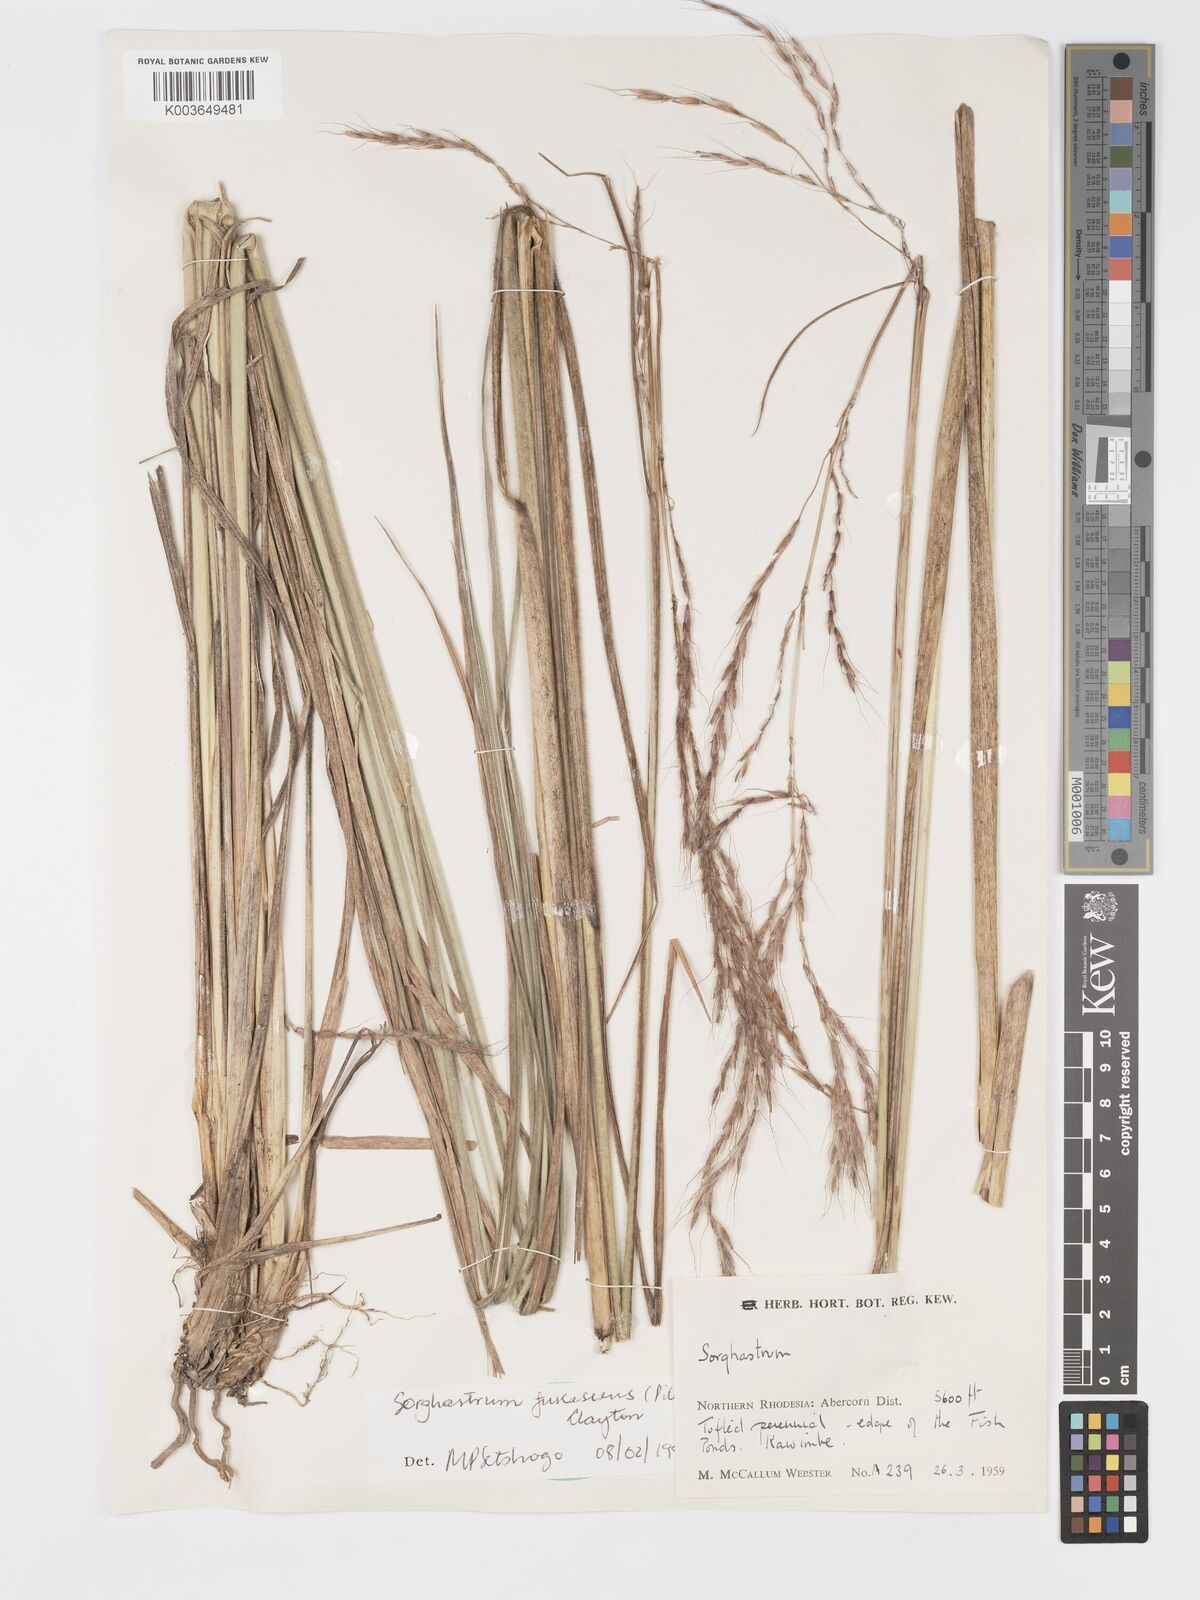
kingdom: Plantae
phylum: Tracheophyta
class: Liliopsida
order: Poales
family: Poaceae
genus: Sorghastrum
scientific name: Sorghastrum fuscescens
